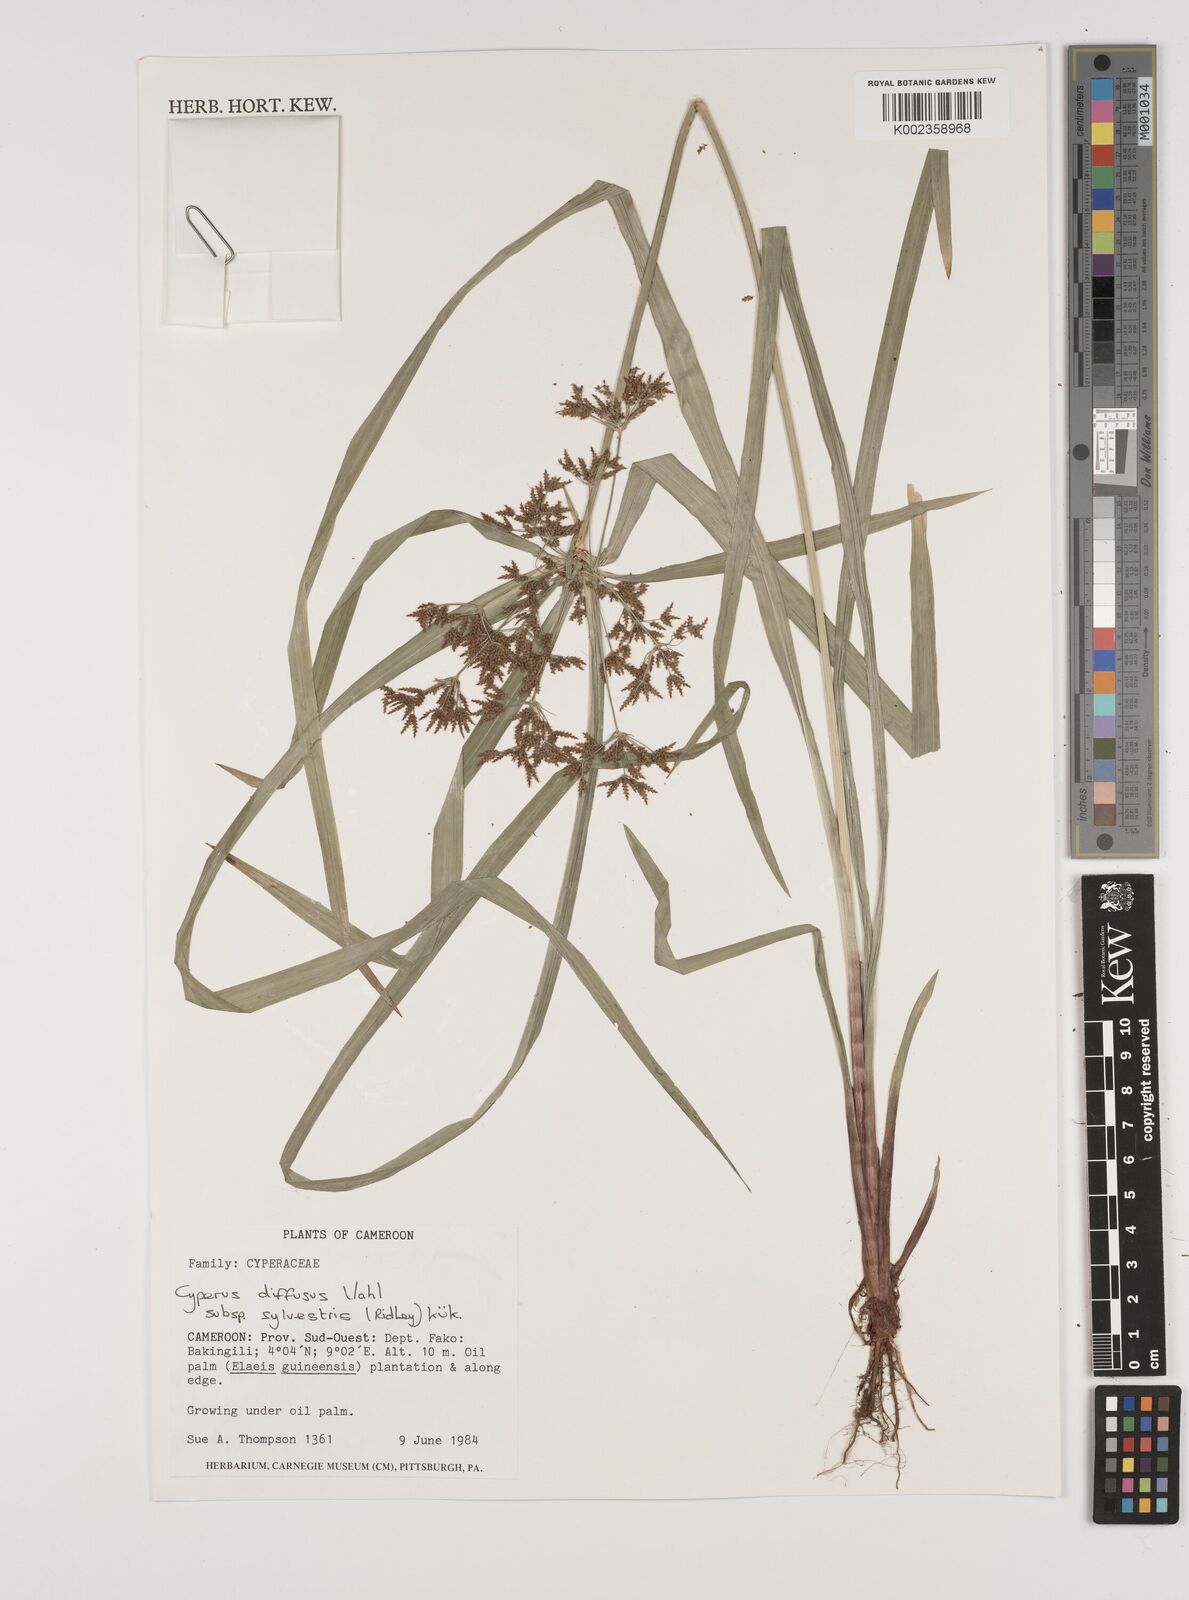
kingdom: Plantae
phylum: Tracheophyta
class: Liliopsida
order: Poales
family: Cyperaceae
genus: Cyperus
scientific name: Cyperus diffusus
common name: Dwarf umbrella grass
